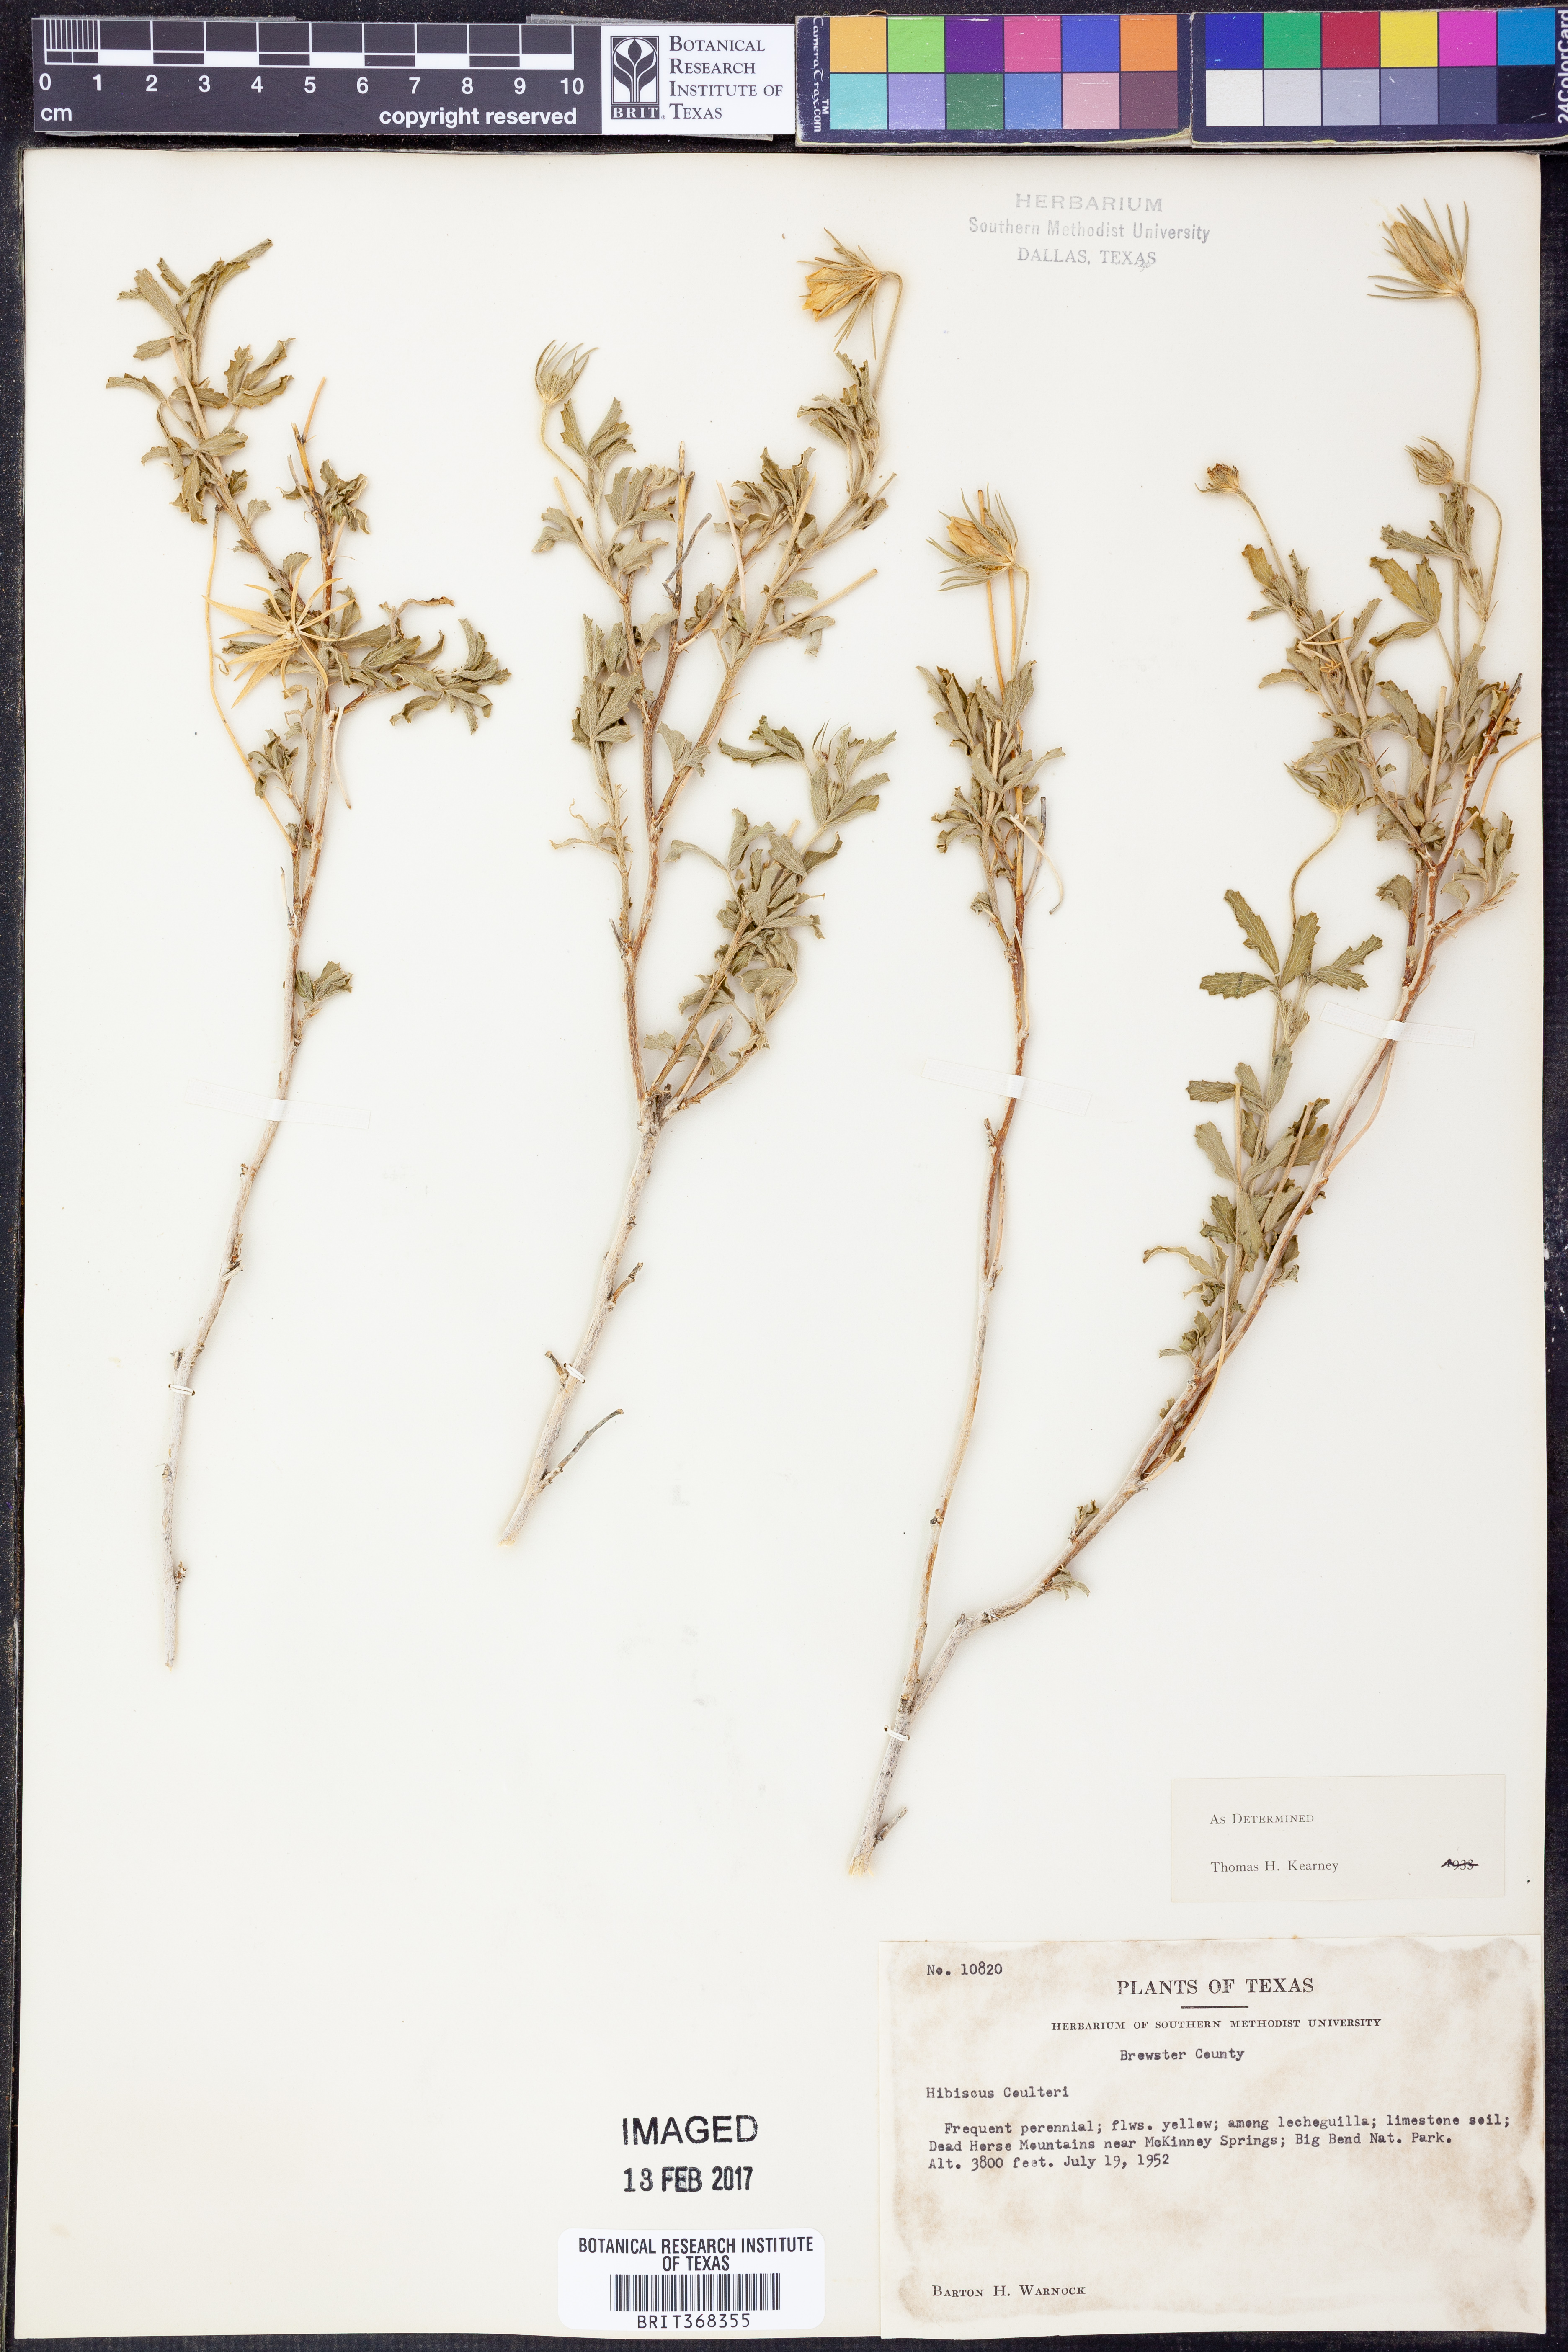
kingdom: Plantae
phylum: Tracheophyta
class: Magnoliopsida
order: Malvales
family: Malvaceae
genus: Hibiscus
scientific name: Hibiscus coulteri
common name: Desert rose-mallow
